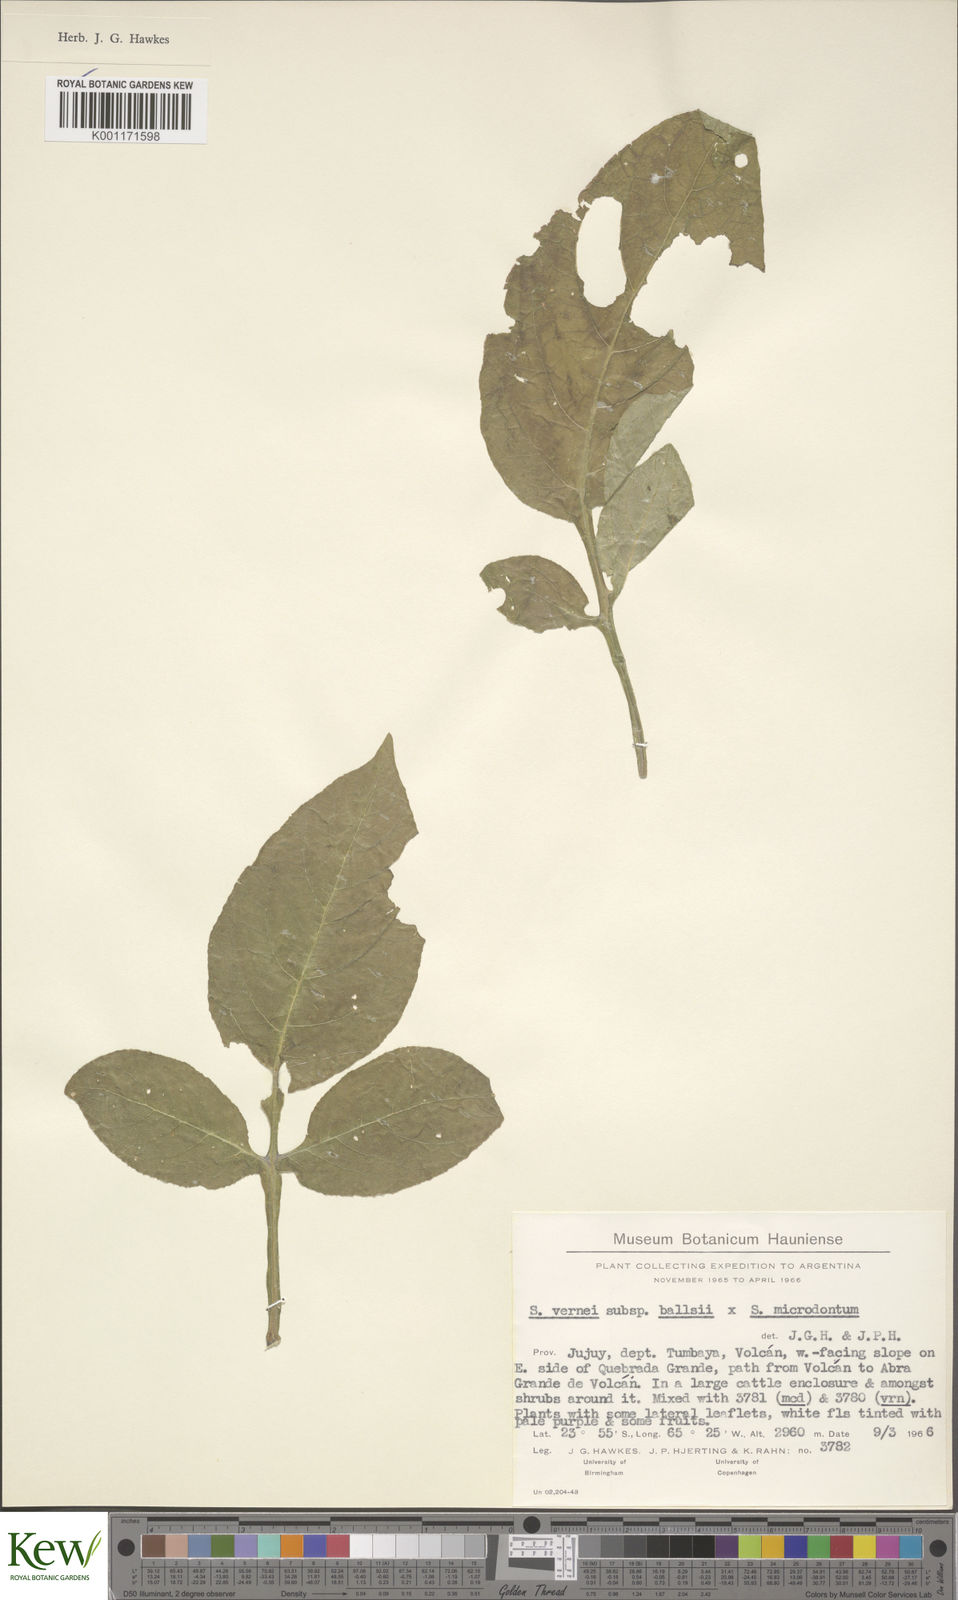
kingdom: Plantae
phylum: Tracheophyta
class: Magnoliopsida
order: Solanales
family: Solanaceae
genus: Solanum
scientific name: Solanum vernei
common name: Purple potato
